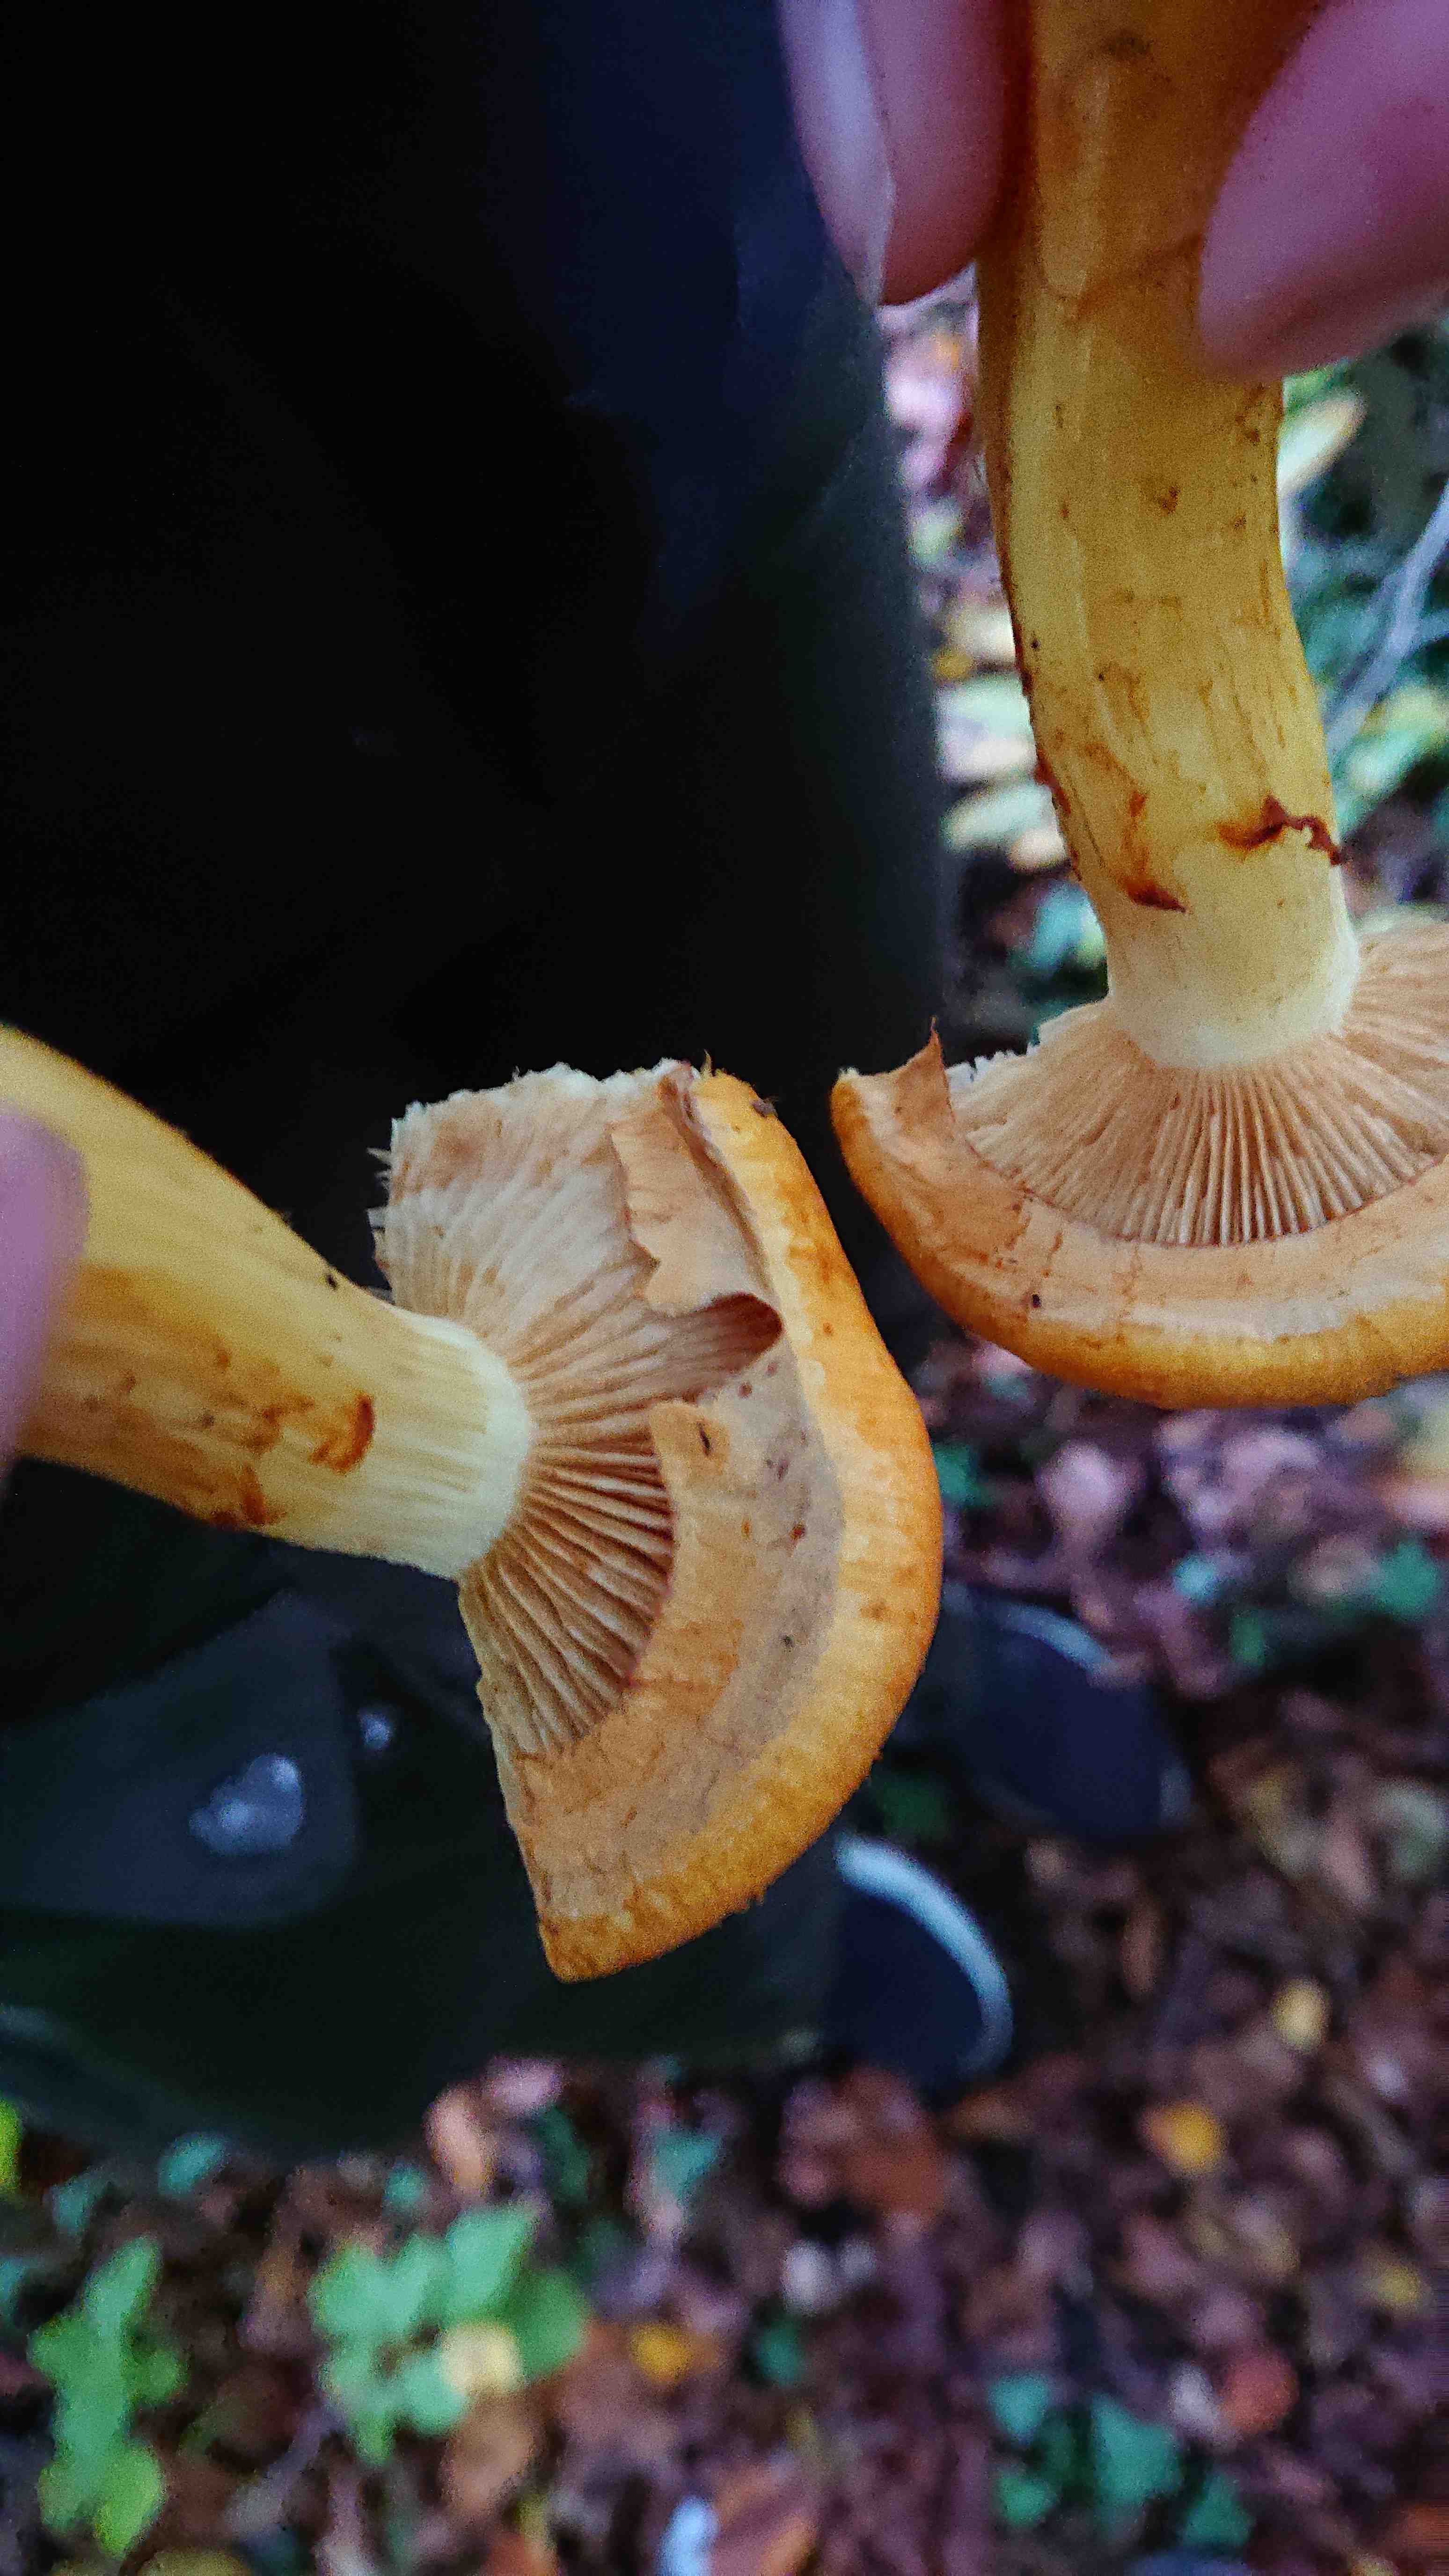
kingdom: Fungi
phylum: Basidiomycota
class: Agaricomycetes
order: Agaricales
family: Hymenogastraceae
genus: Gymnopilus
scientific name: Gymnopilus spectabilis
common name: fibret flammehat
